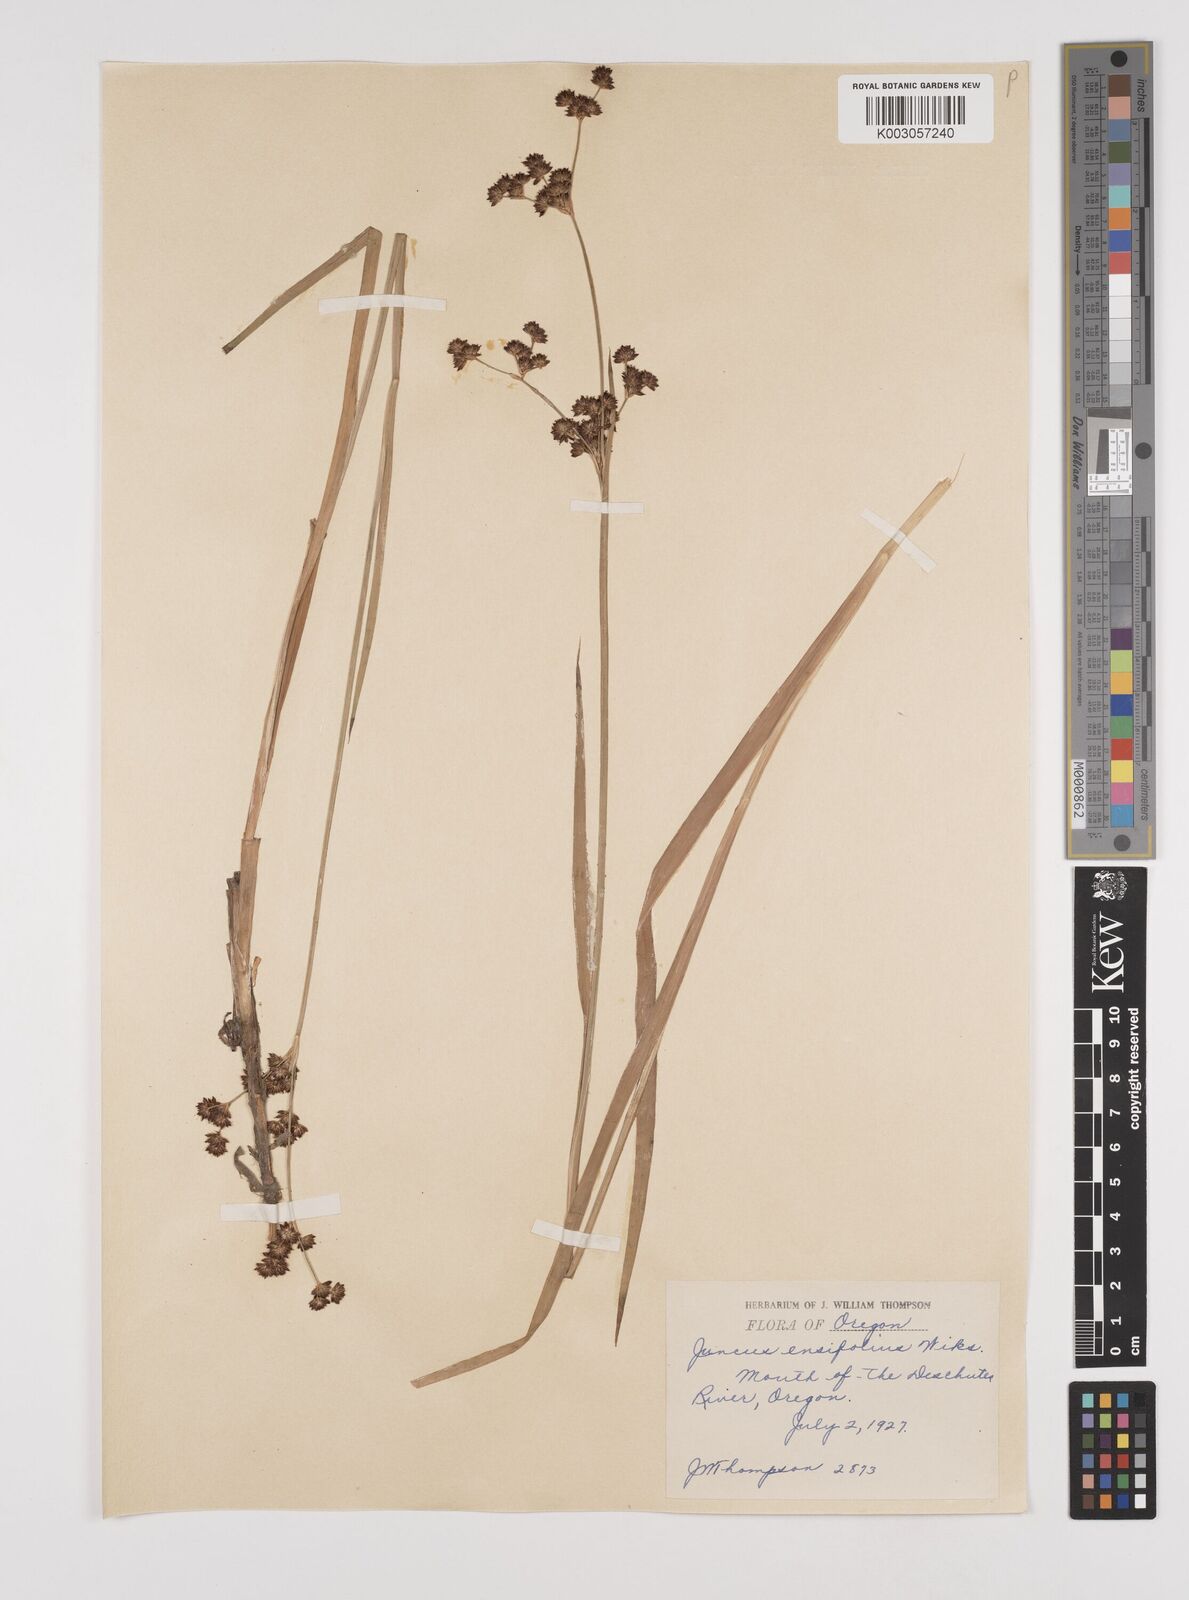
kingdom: Plantae
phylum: Tracheophyta
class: Liliopsida
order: Poales
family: Juncaceae
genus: Juncus
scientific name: Juncus ensifolius
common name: Sword-leaved rush
